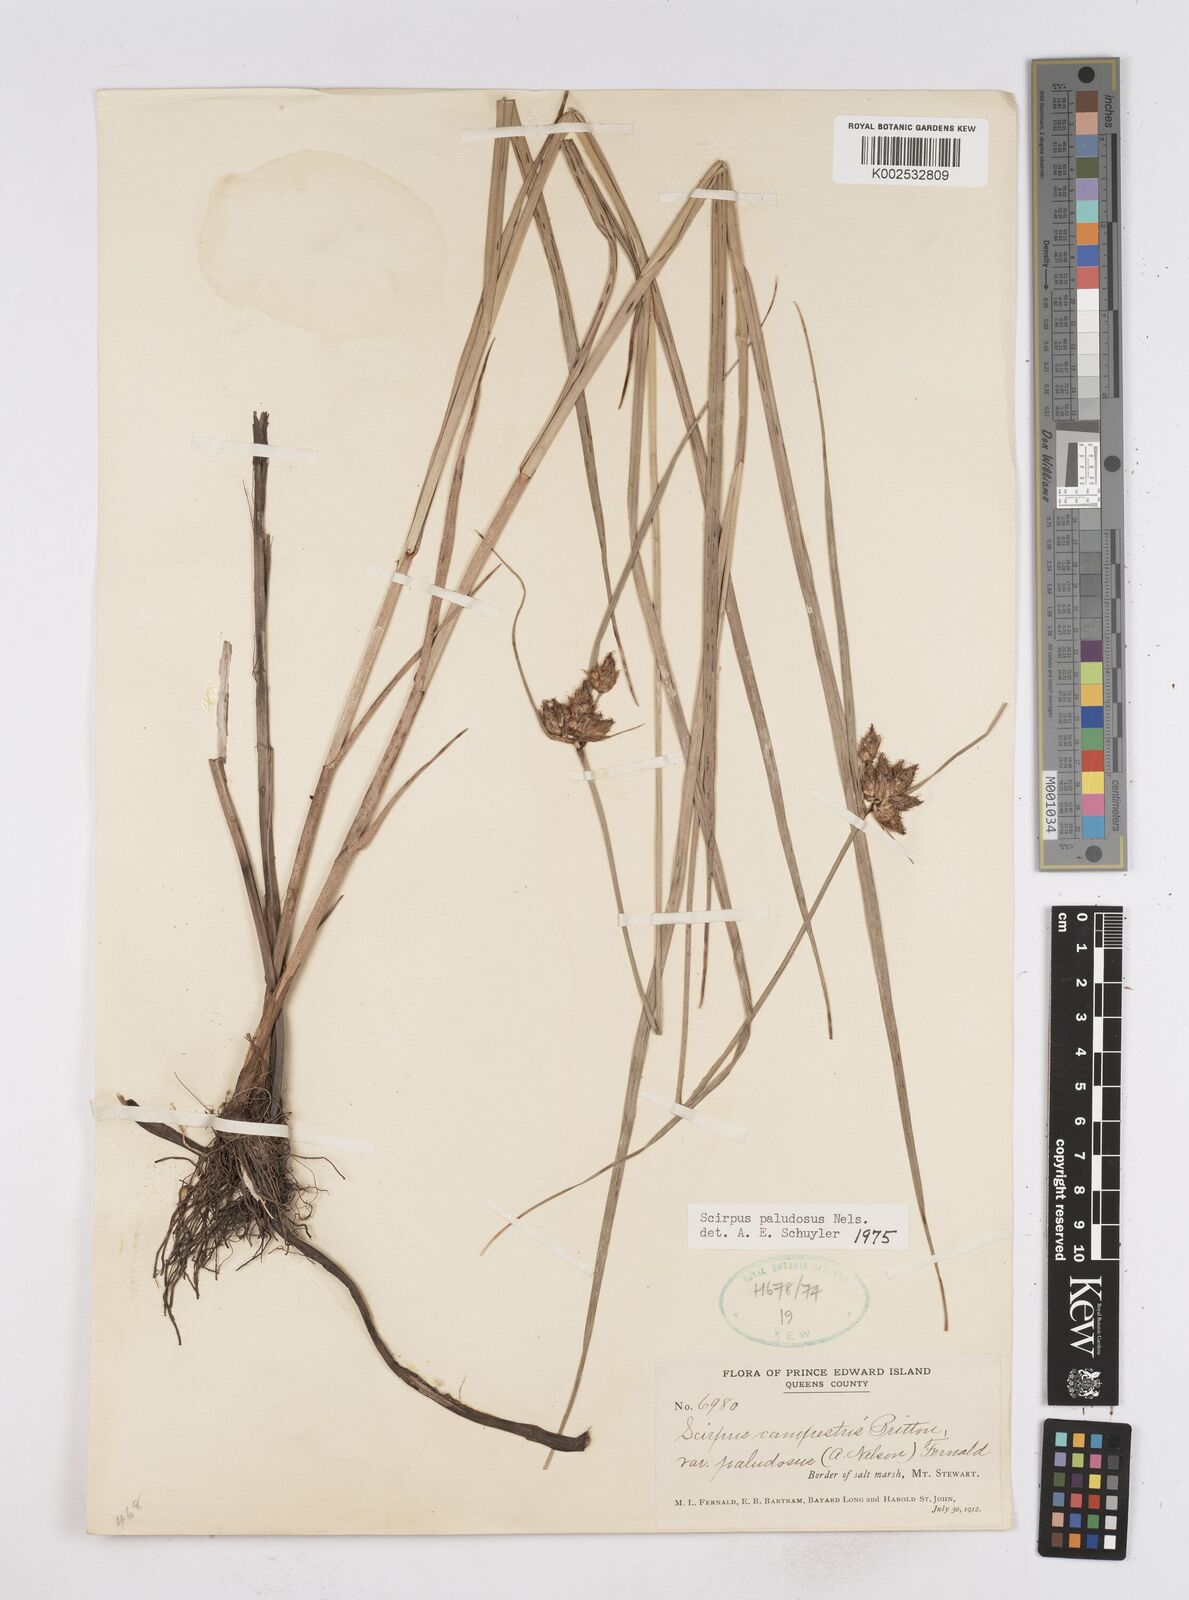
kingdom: Plantae
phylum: Tracheophyta
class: Liliopsida
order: Poales
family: Cyperaceae
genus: Bolboschoenus
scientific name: Bolboschoenus maritimus
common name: Sea club-rush
